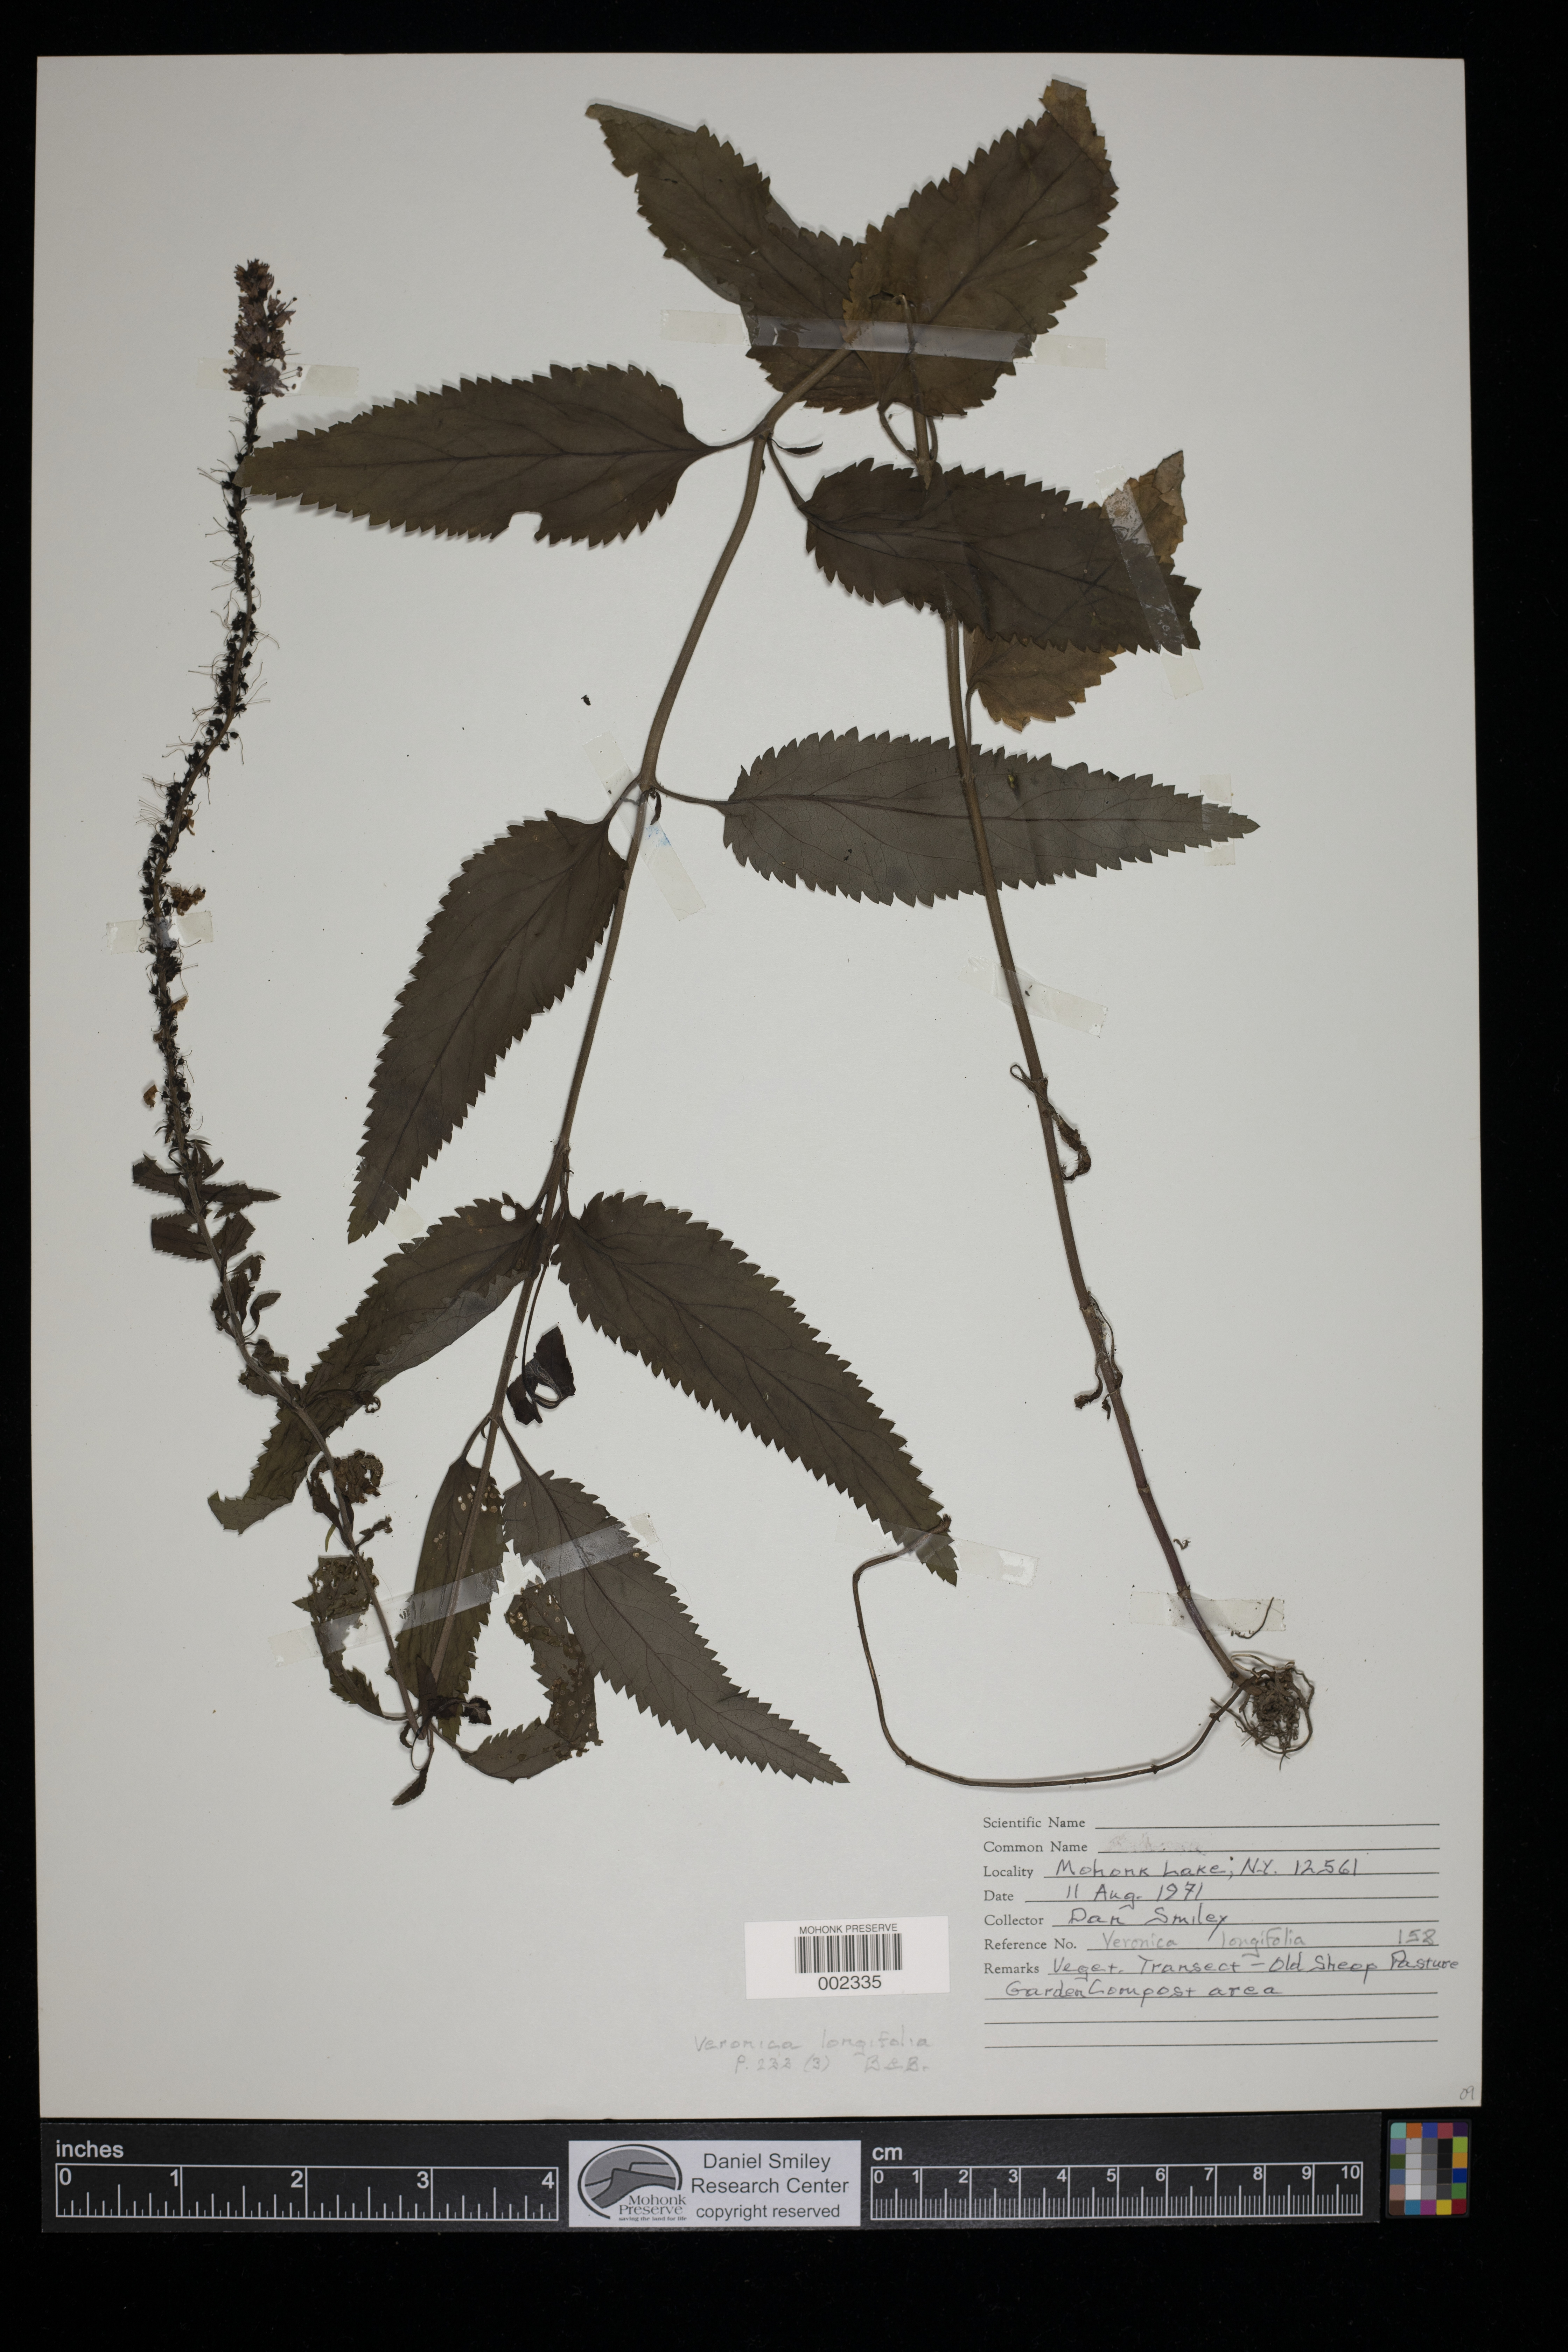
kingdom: Plantae
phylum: Tracheophyta
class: Magnoliopsida
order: Lamiales
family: Plantaginaceae
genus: Veronica
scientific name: Veronica longifolia
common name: Garden speedwell
